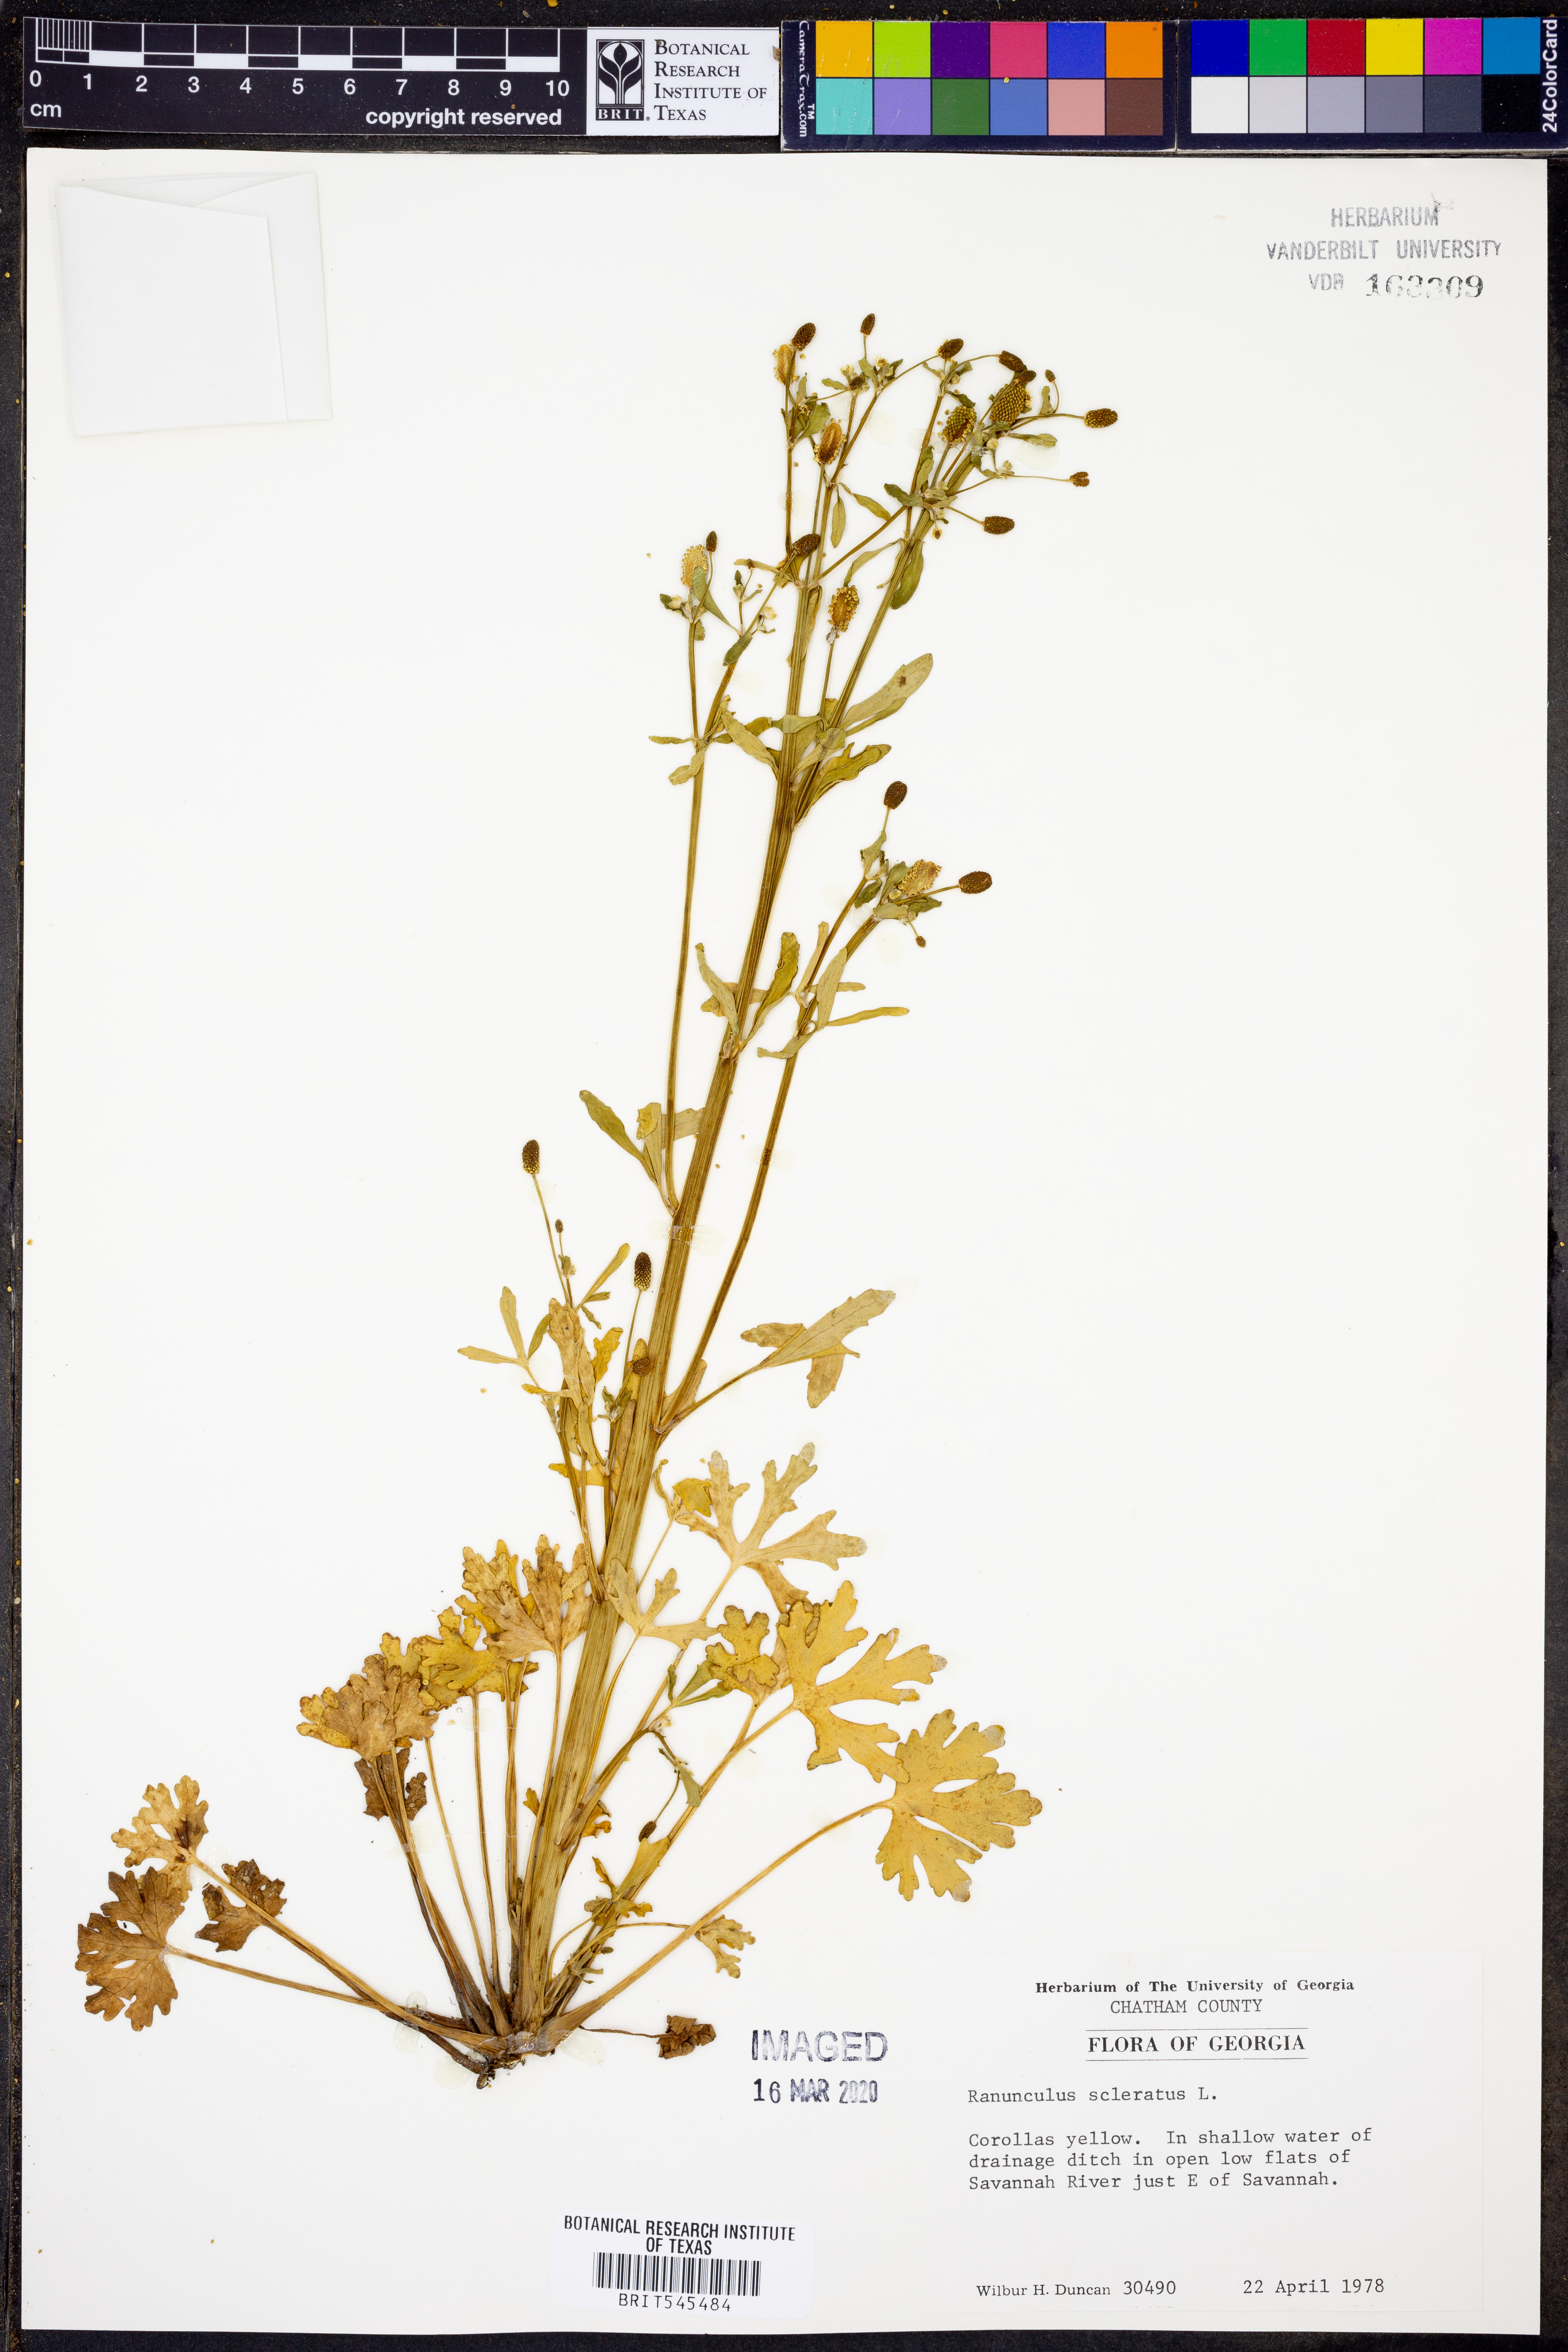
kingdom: Plantae
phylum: Tracheophyta
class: Magnoliopsida
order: Ranunculales
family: Ranunculaceae
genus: Ranunculus
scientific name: Ranunculus sceleratus
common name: Celery-leaved buttercup
